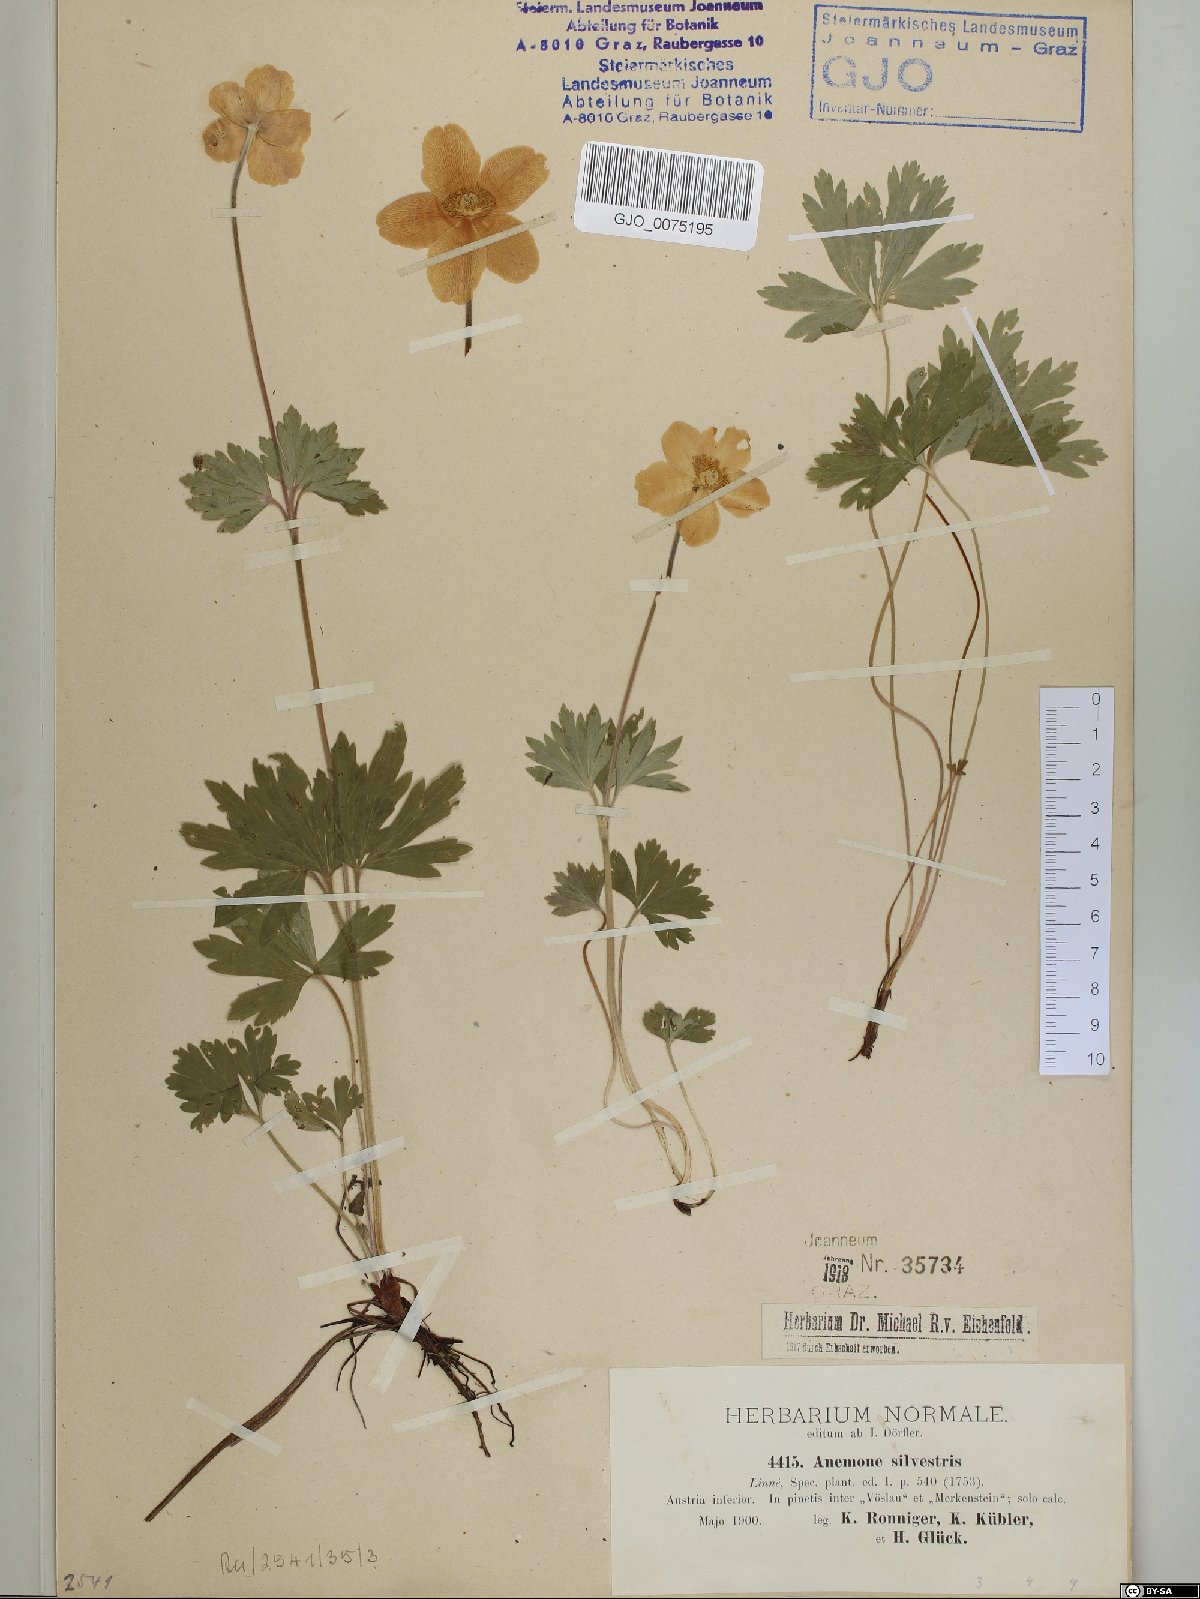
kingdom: Plantae
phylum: Tracheophyta
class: Magnoliopsida
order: Ranunculales
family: Ranunculaceae
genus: Anemone
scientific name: Anemone sylvestris
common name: Snowdrop anemone
